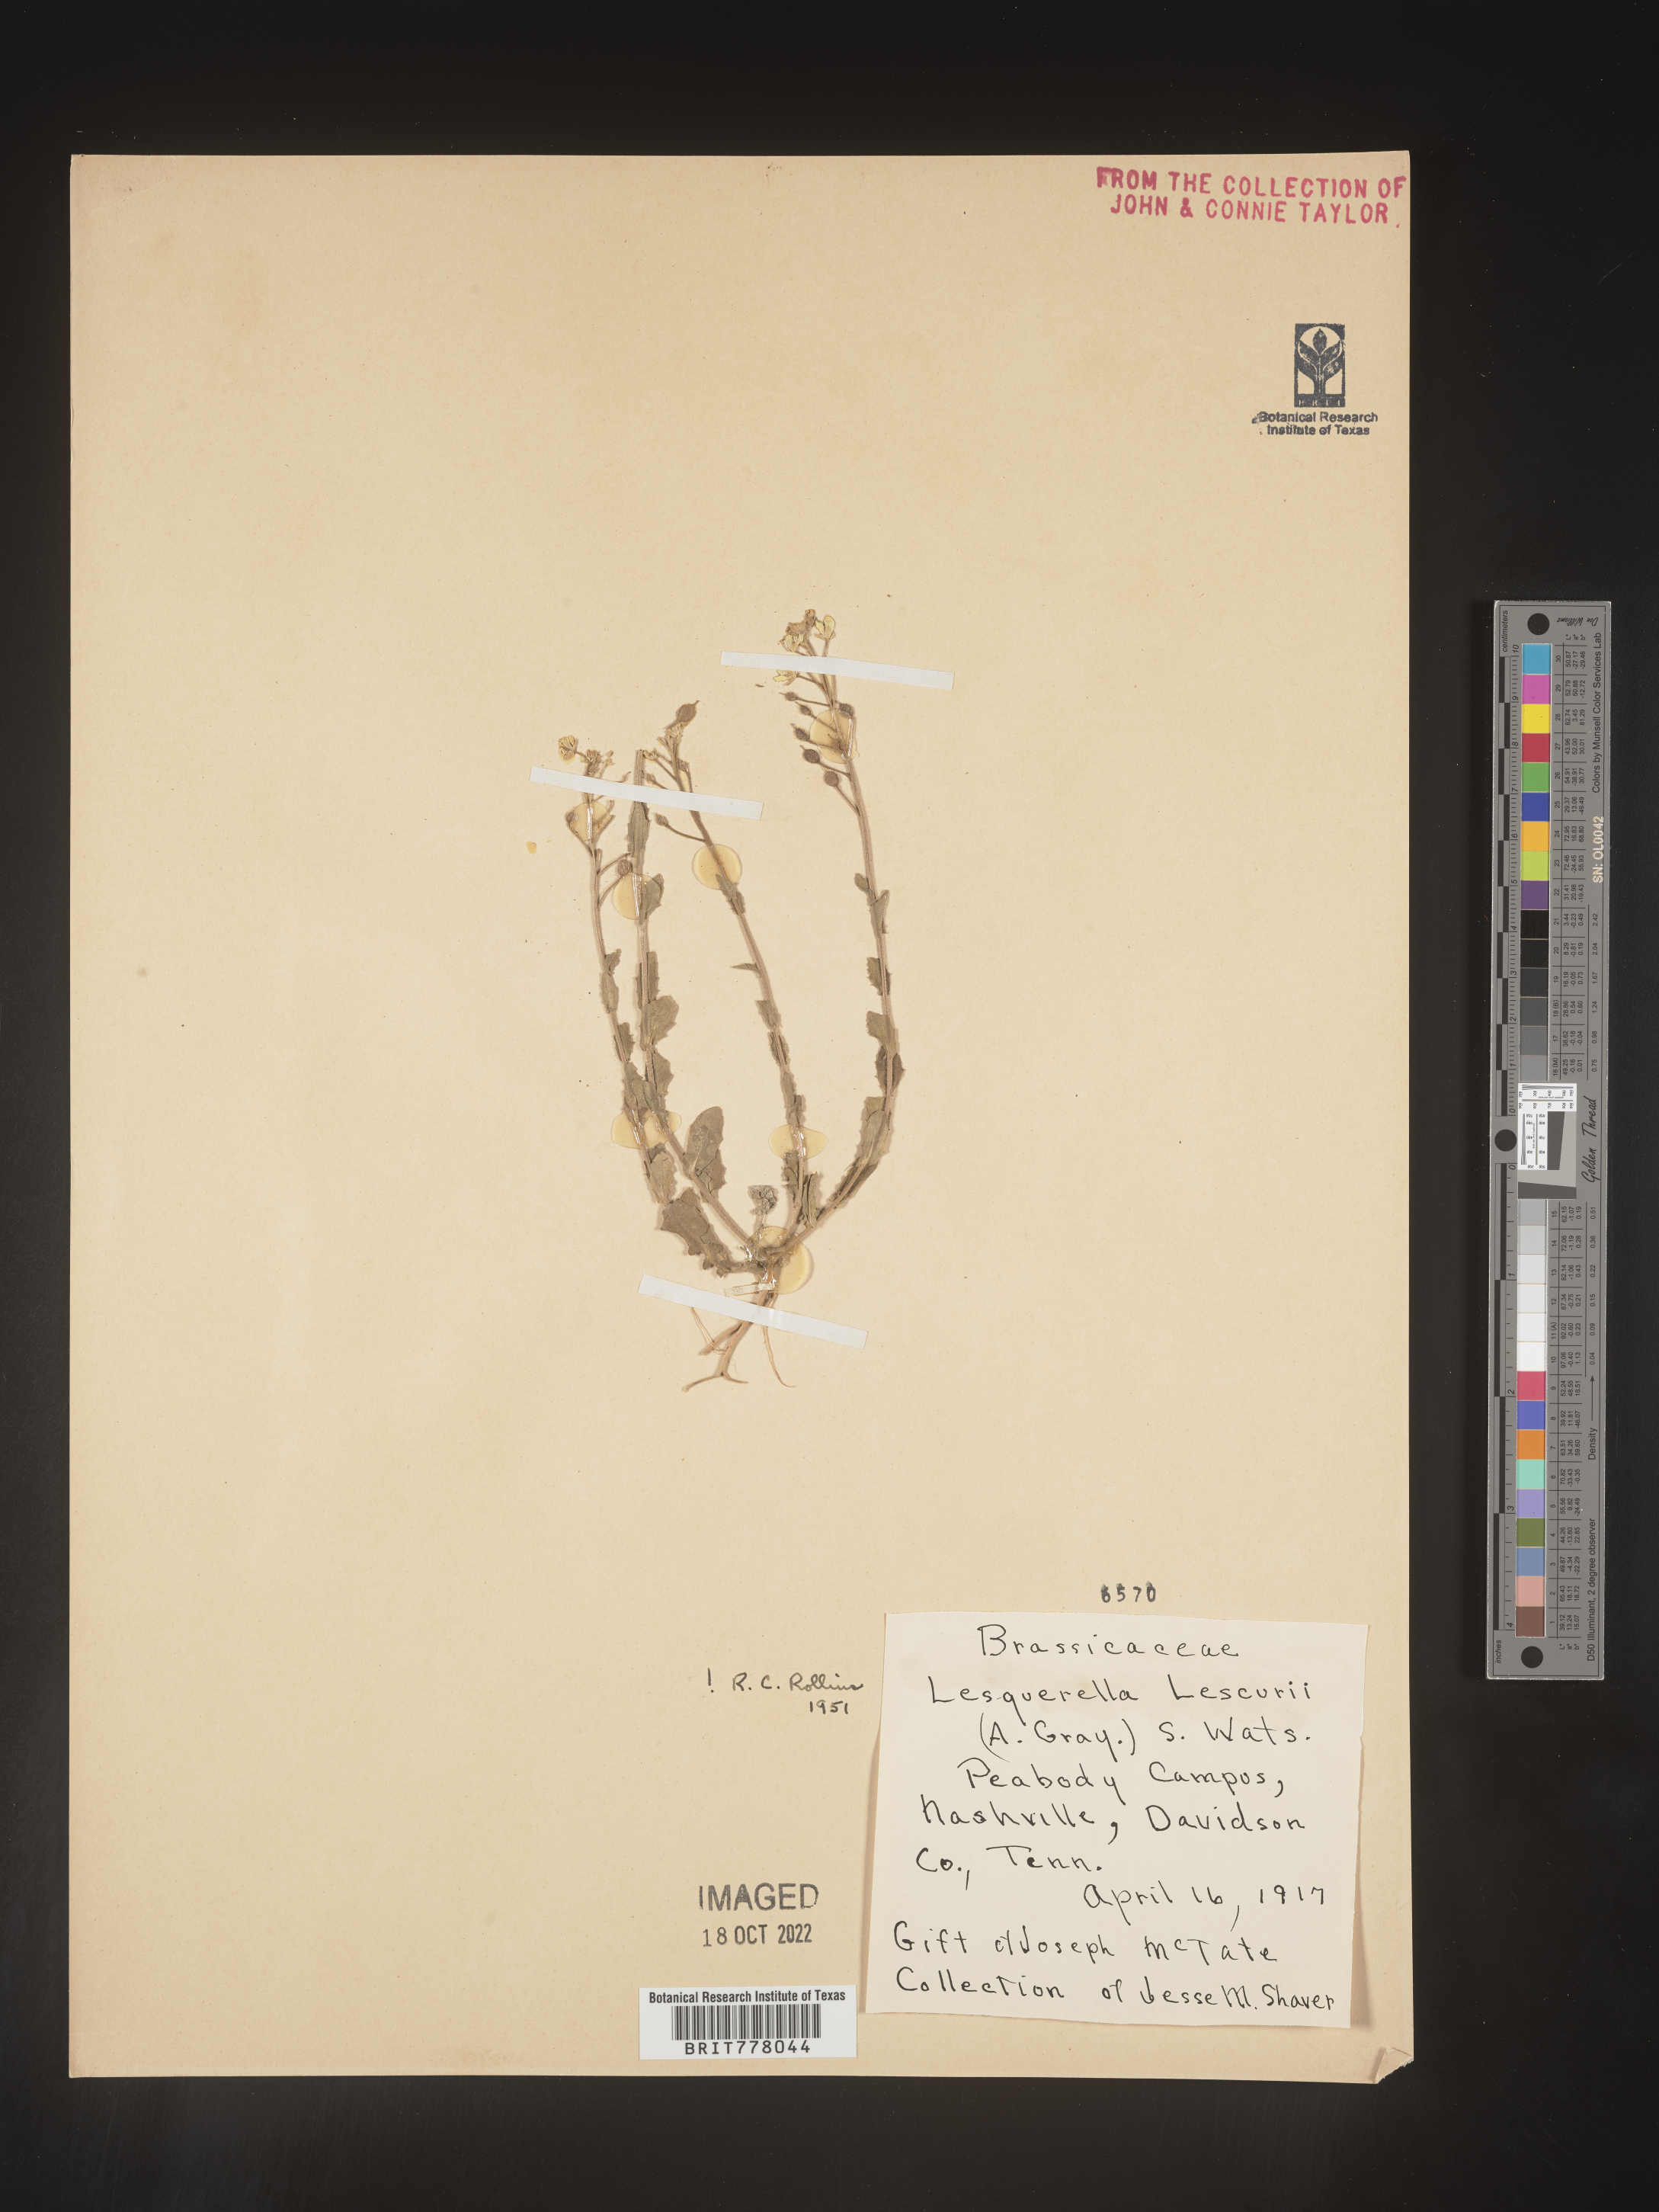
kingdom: Chromista
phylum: Cercozoa
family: Psammonobiotidae
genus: Lesquerella
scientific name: Lesquerella
